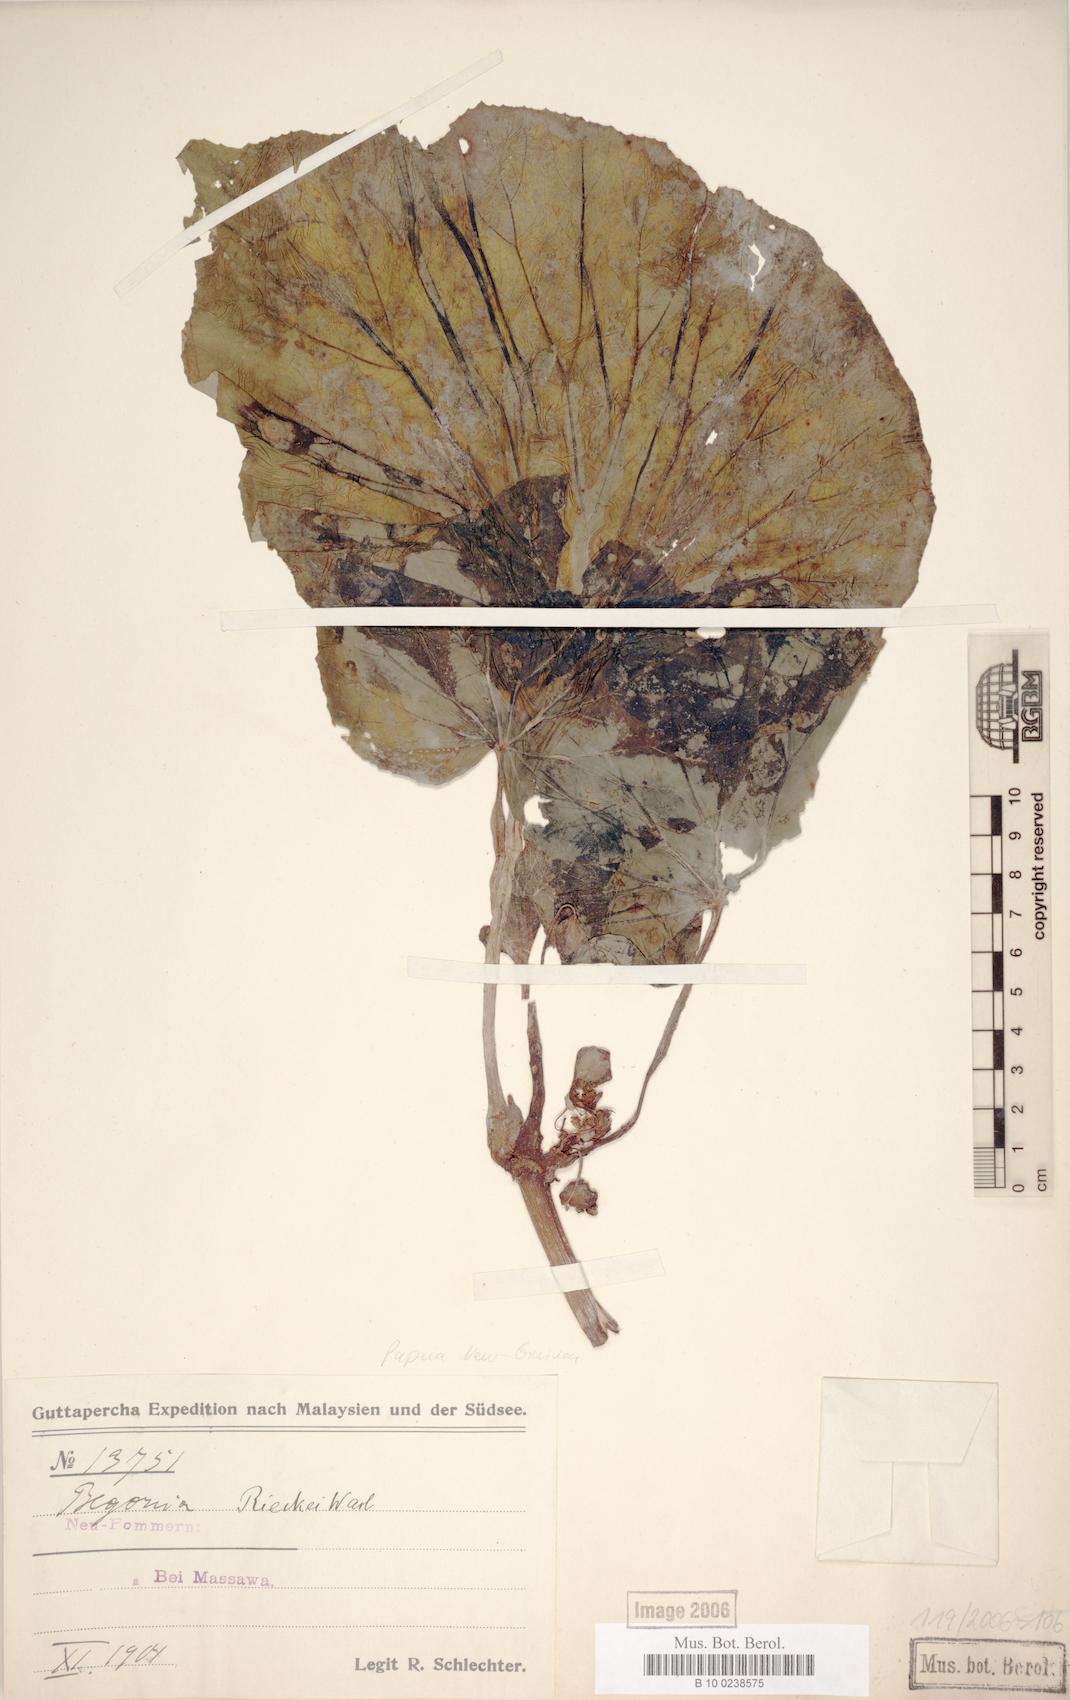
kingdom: Plantae
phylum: Tracheophyta
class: Magnoliopsida
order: Cucurbitales
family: Begoniaceae
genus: Begonia
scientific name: Begonia rieckei
